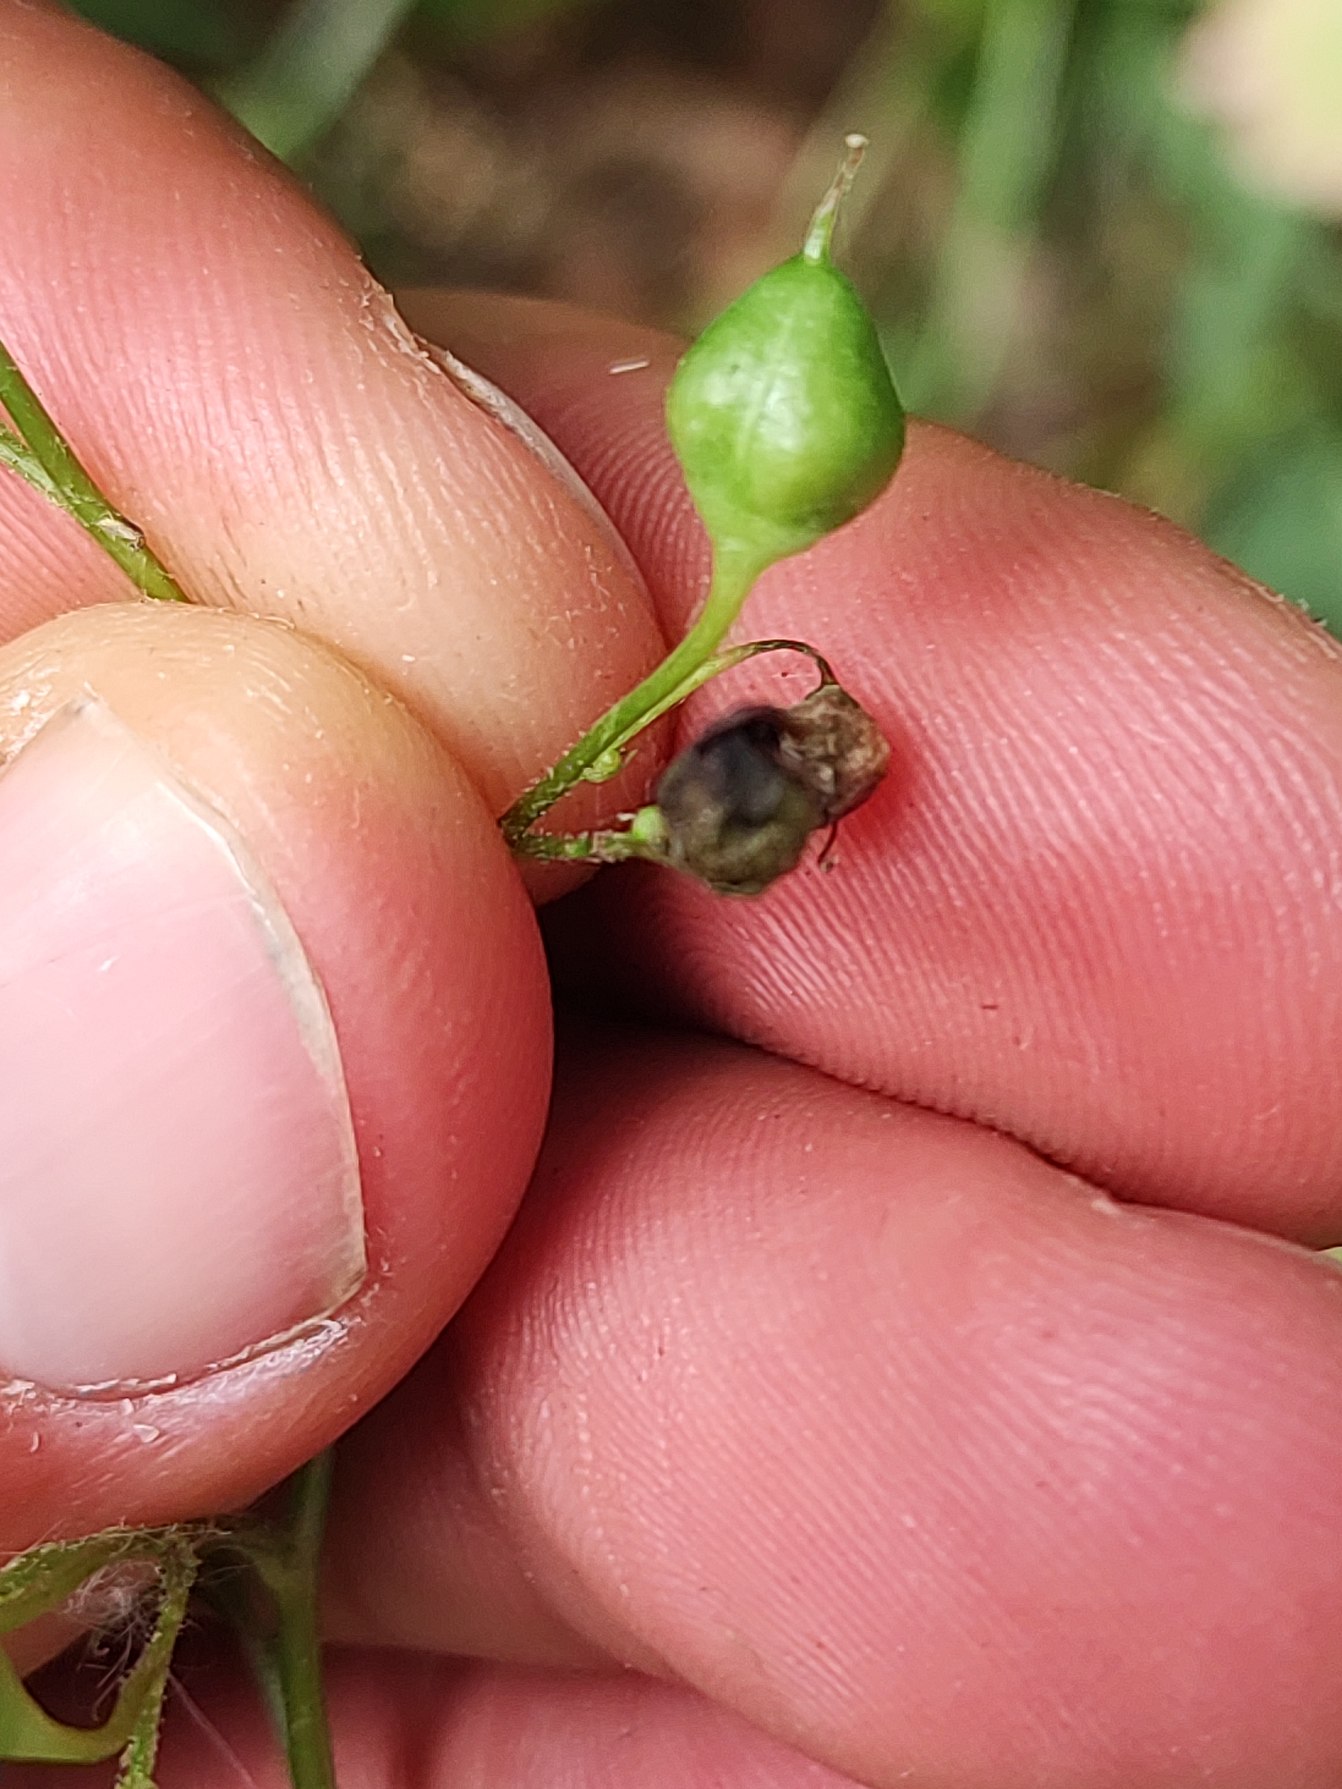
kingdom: Plantae
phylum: Tracheophyta
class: Magnoliopsida
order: Lamiales
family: Scrophulariaceae
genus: Scrophularia
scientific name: Scrophularia nodosa
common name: Knoldet brunrod
